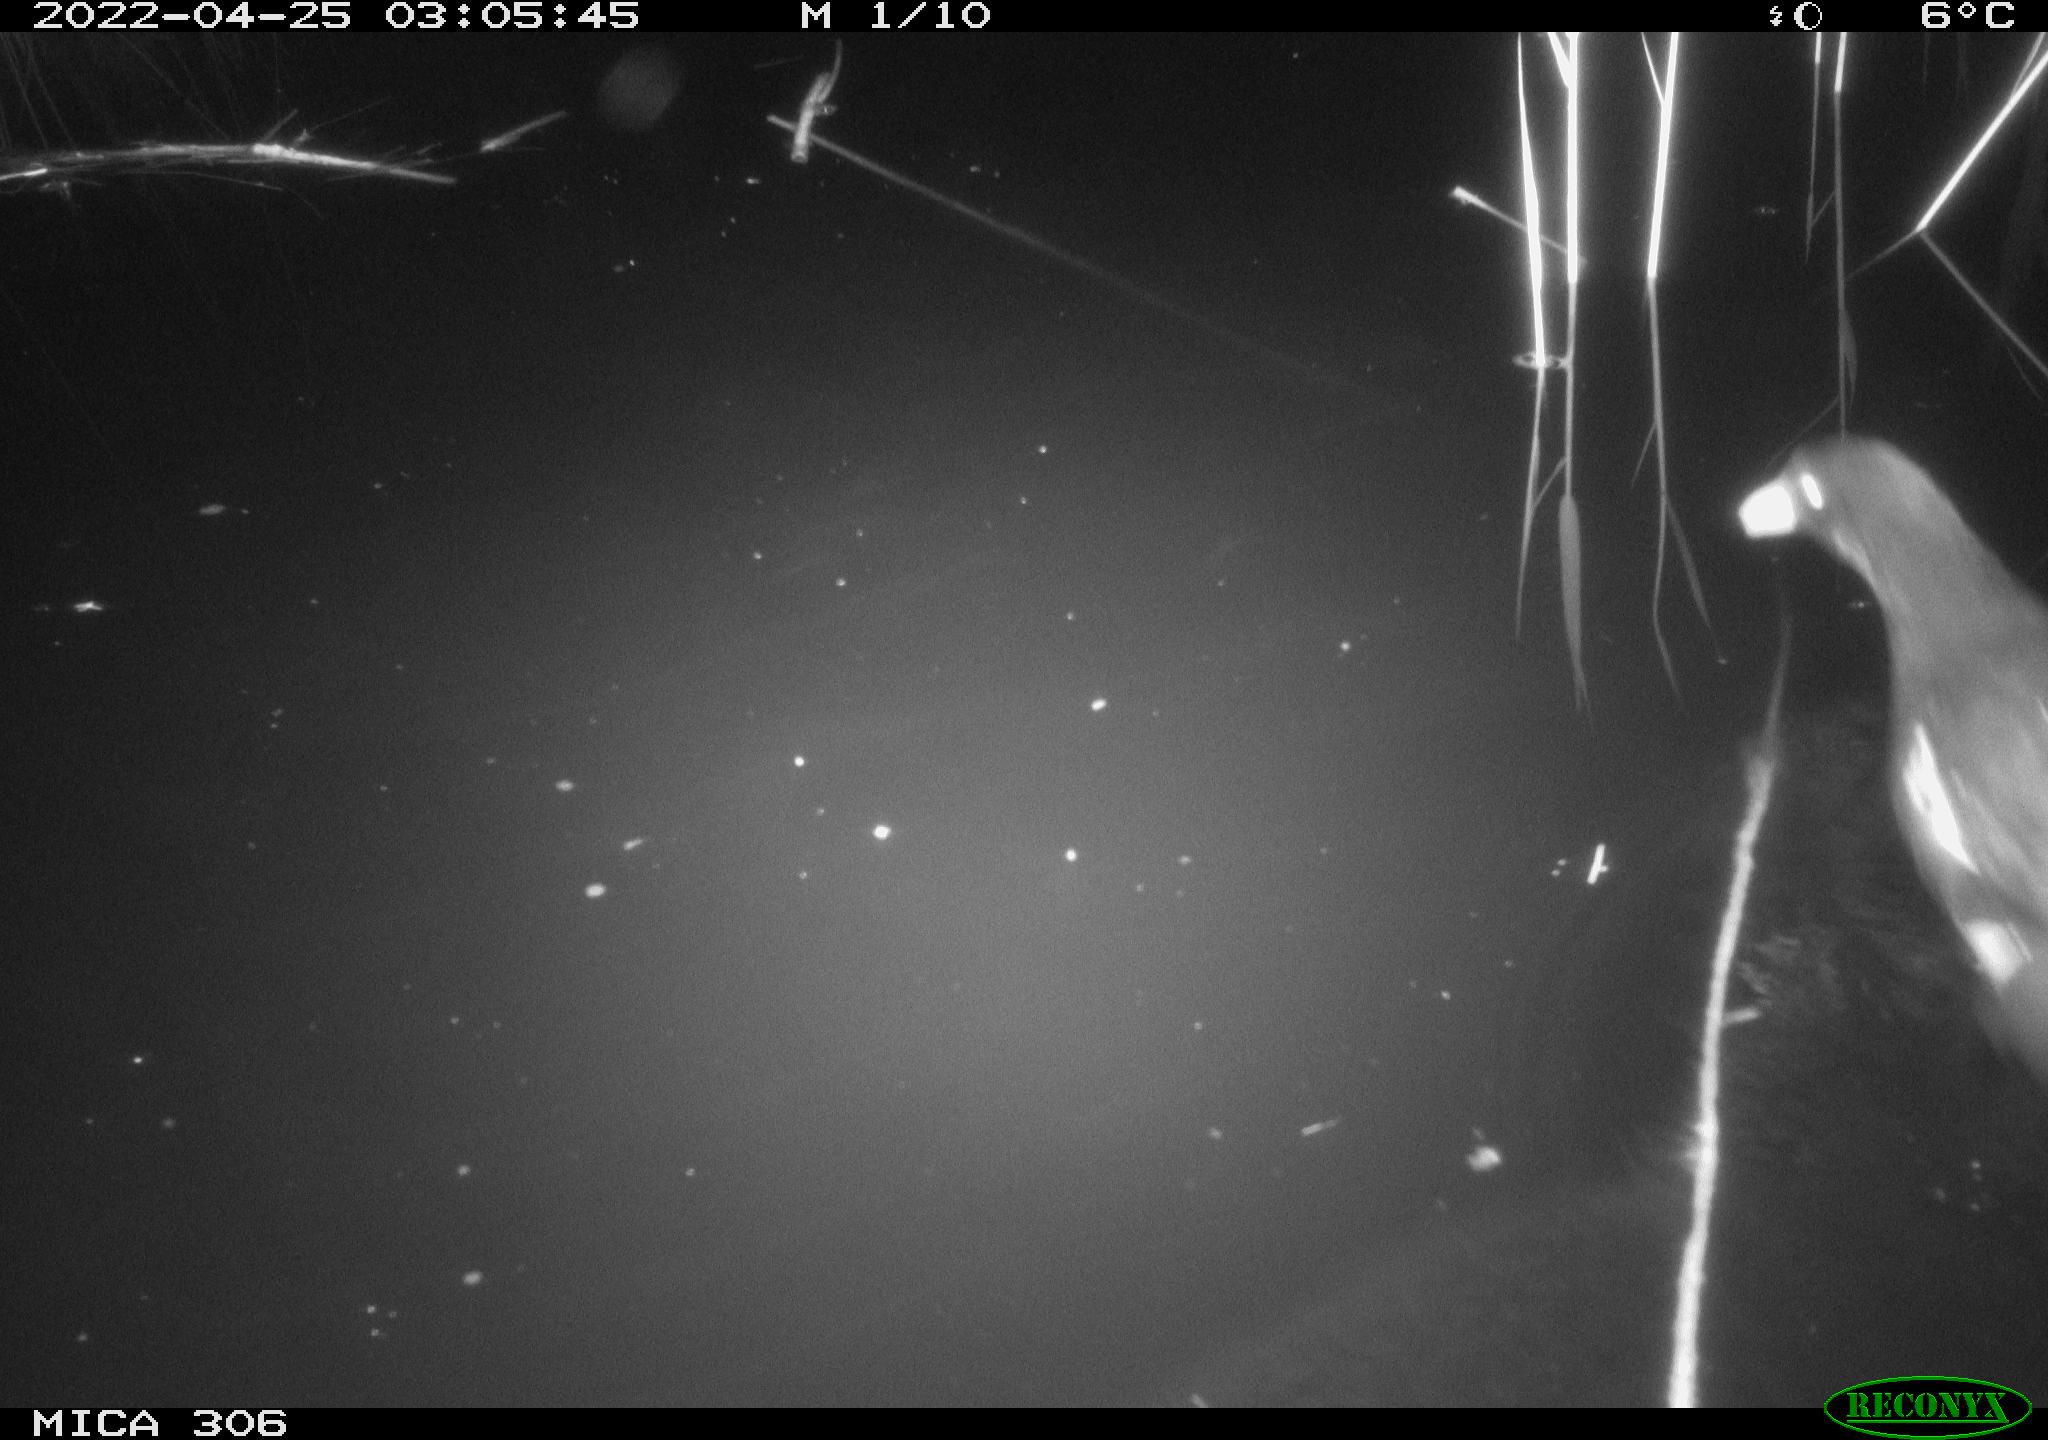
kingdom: Animalia
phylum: Chordata
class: Mammalia
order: Rodentia
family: Cricetidae
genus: Ondatra
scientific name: Ondatra zibethicus
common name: Muskrat
